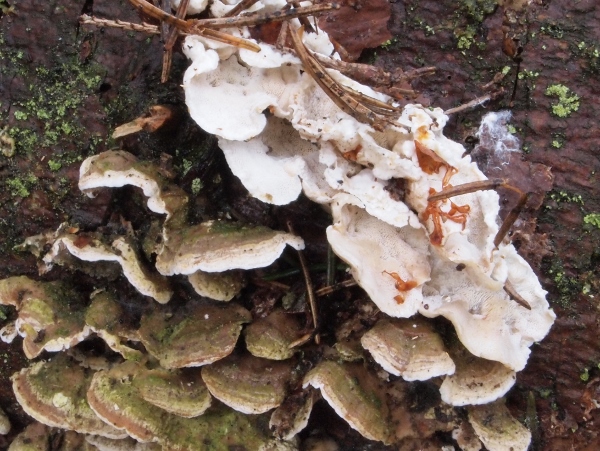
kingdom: Fungi
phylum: Basidiomycota
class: Agaricomycetes
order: Polyporales
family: Incrustoporiaceae
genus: Skeletocutis
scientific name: Skeletocutis carneogrisea
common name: rødgrå krystalporesvamp
